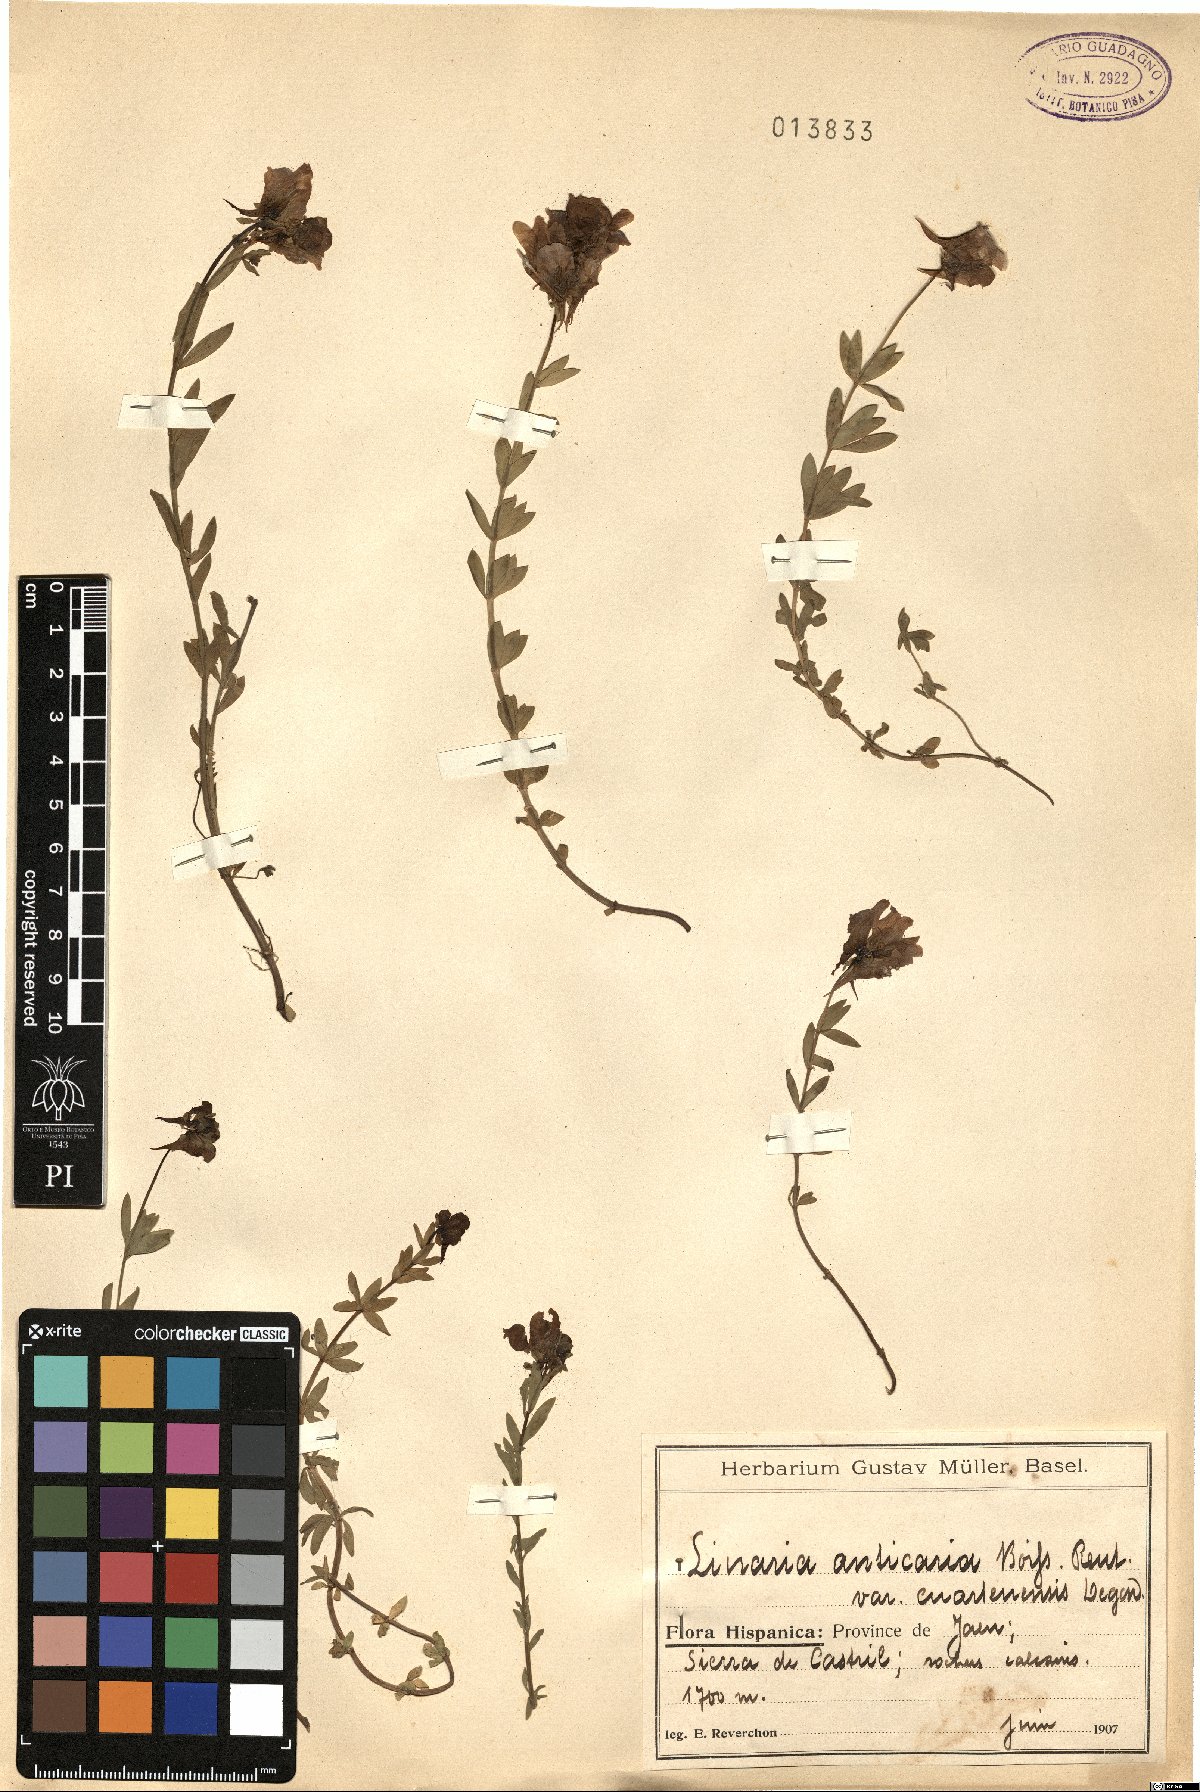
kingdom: Plantae
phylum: Tracheophyta
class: Magnoliopsida
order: Lamiales
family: Plantaginaceae
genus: Linaria
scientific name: Linaria verticillata
